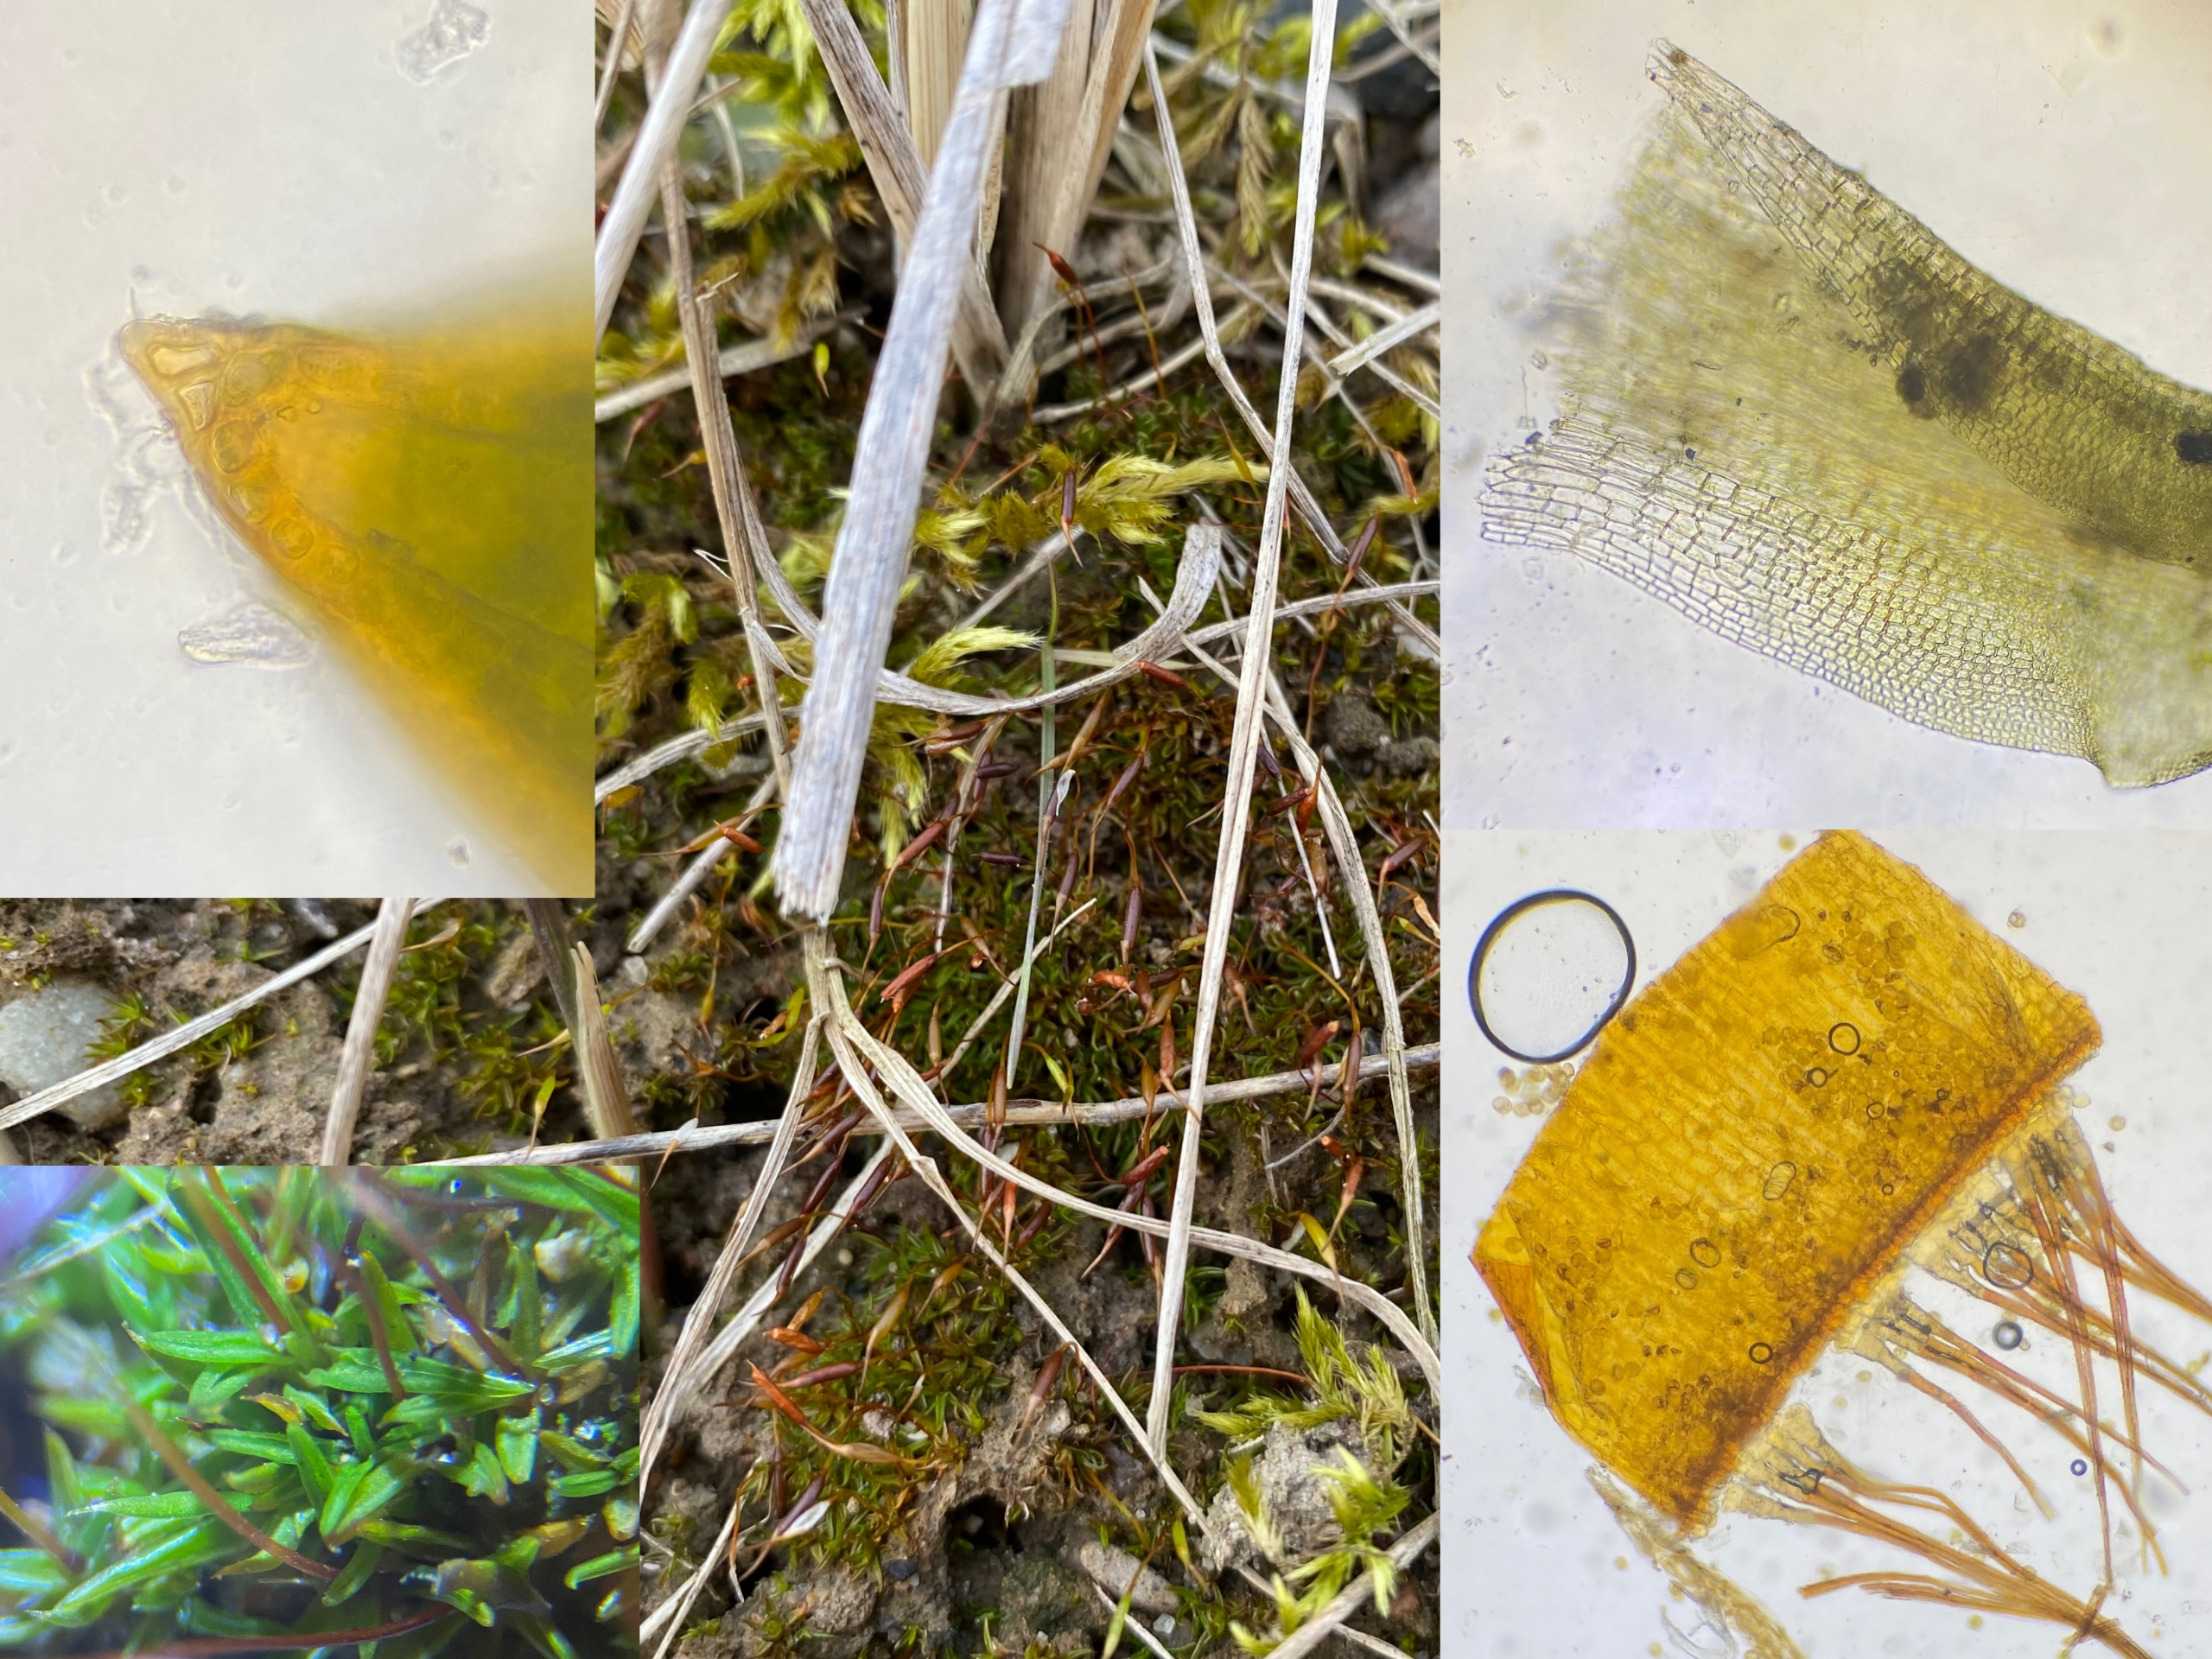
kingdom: Plantae
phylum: Bryophyta
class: Bryopsida
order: Pottiales
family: Pottiaceae
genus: Aloina
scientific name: Aloina aloides
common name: Spidsbladet tøffelmos
